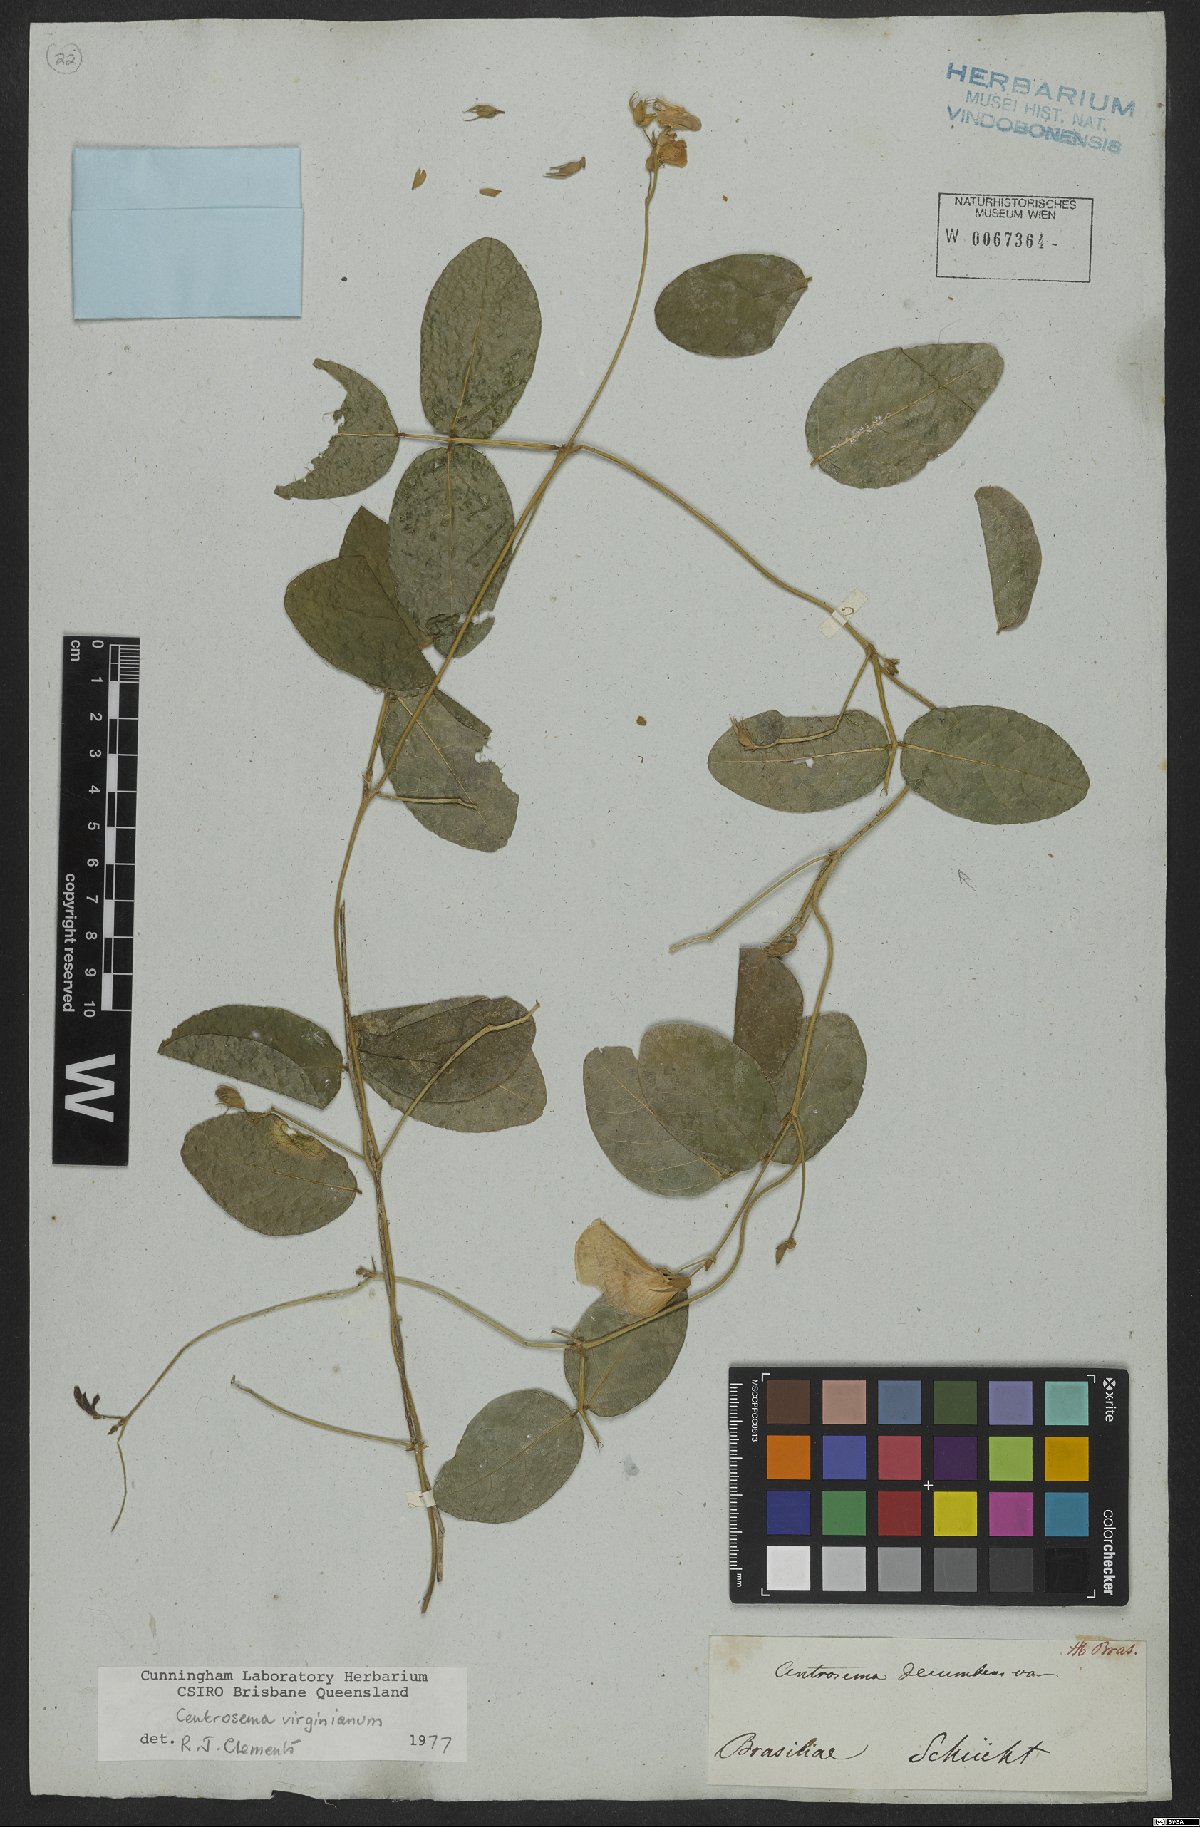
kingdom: Plantae
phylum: Tracheophyta
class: Magnoliopsida
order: Fabales
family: Fabaceae
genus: Centrosema
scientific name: Centrosema virginianum
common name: Butterfly-pea
